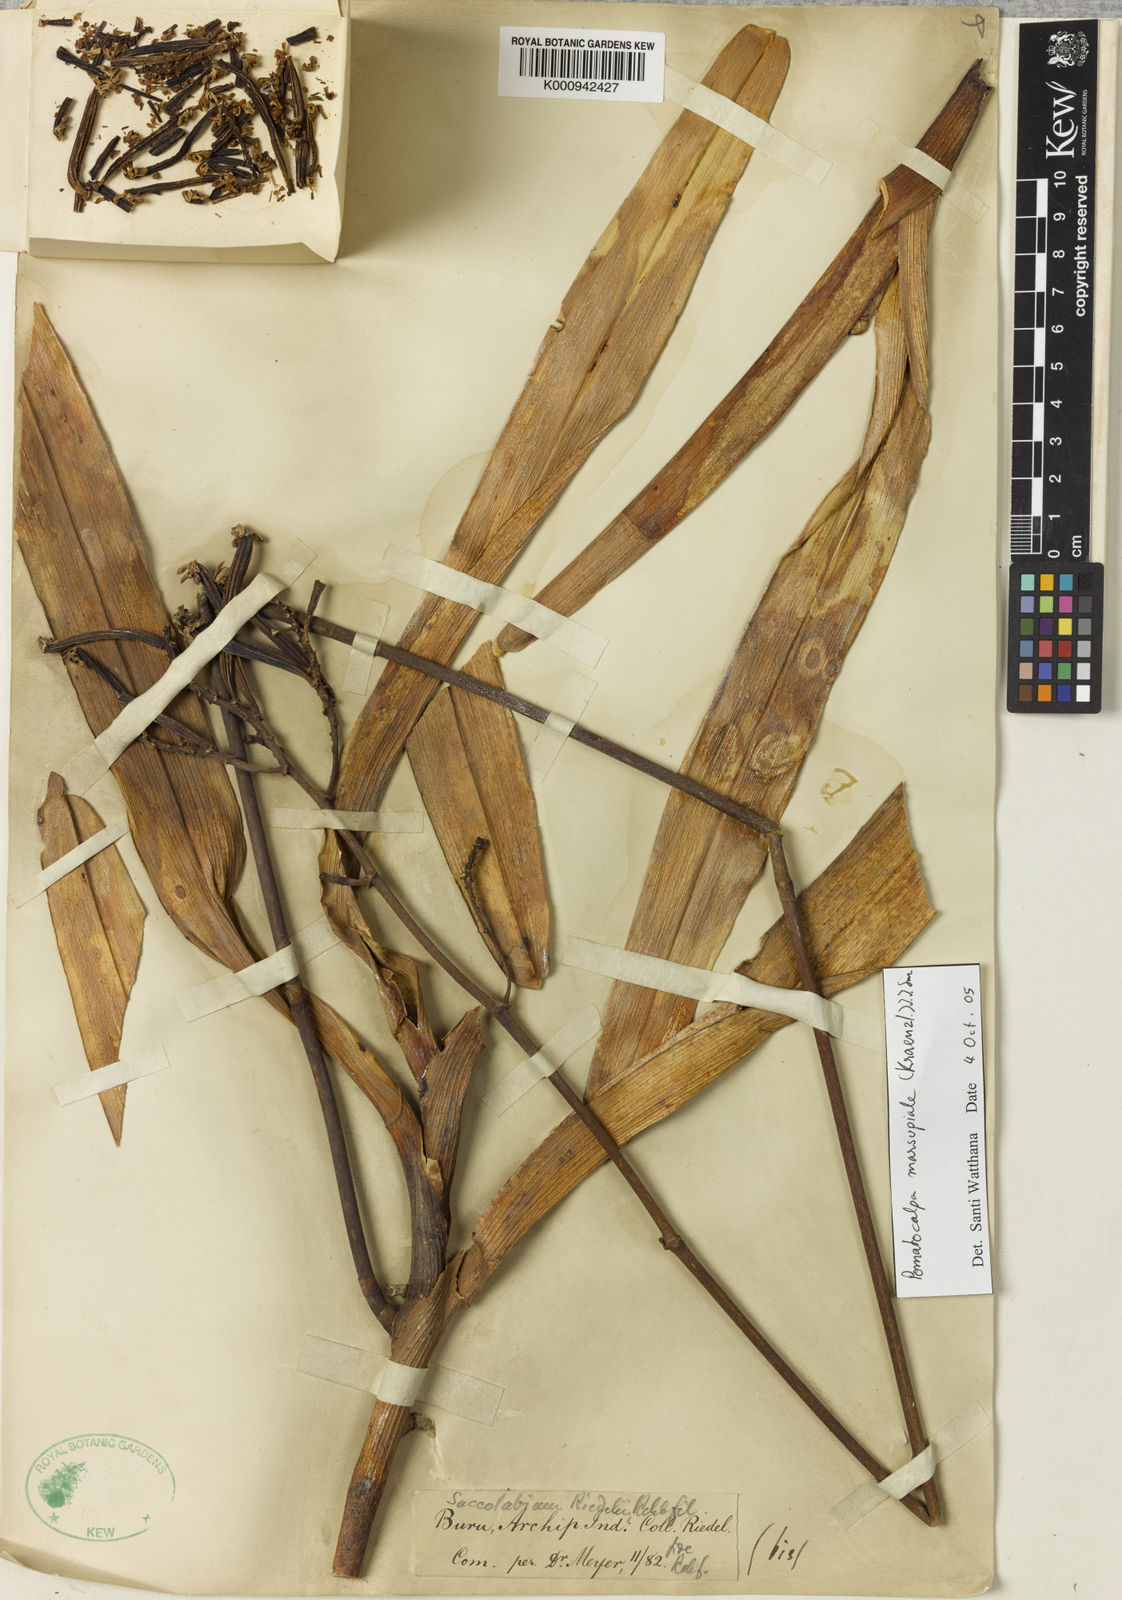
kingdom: Plantae
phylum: Tracheophyta
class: Liliopsida
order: Asparagales
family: Orchidaceae
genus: Pomatocalpa
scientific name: Pomatocalpa marsupiale
